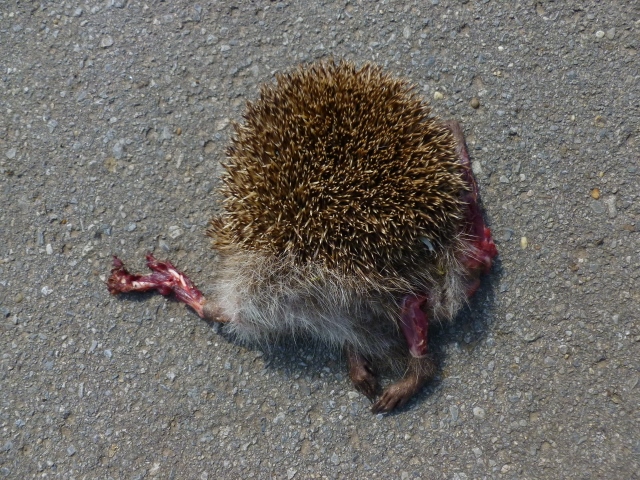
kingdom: Animalia
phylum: Chordata
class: Mammalia
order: Erinaceomorpha
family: Erinaceidae
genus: Erinaceus
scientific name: Erinaceus
